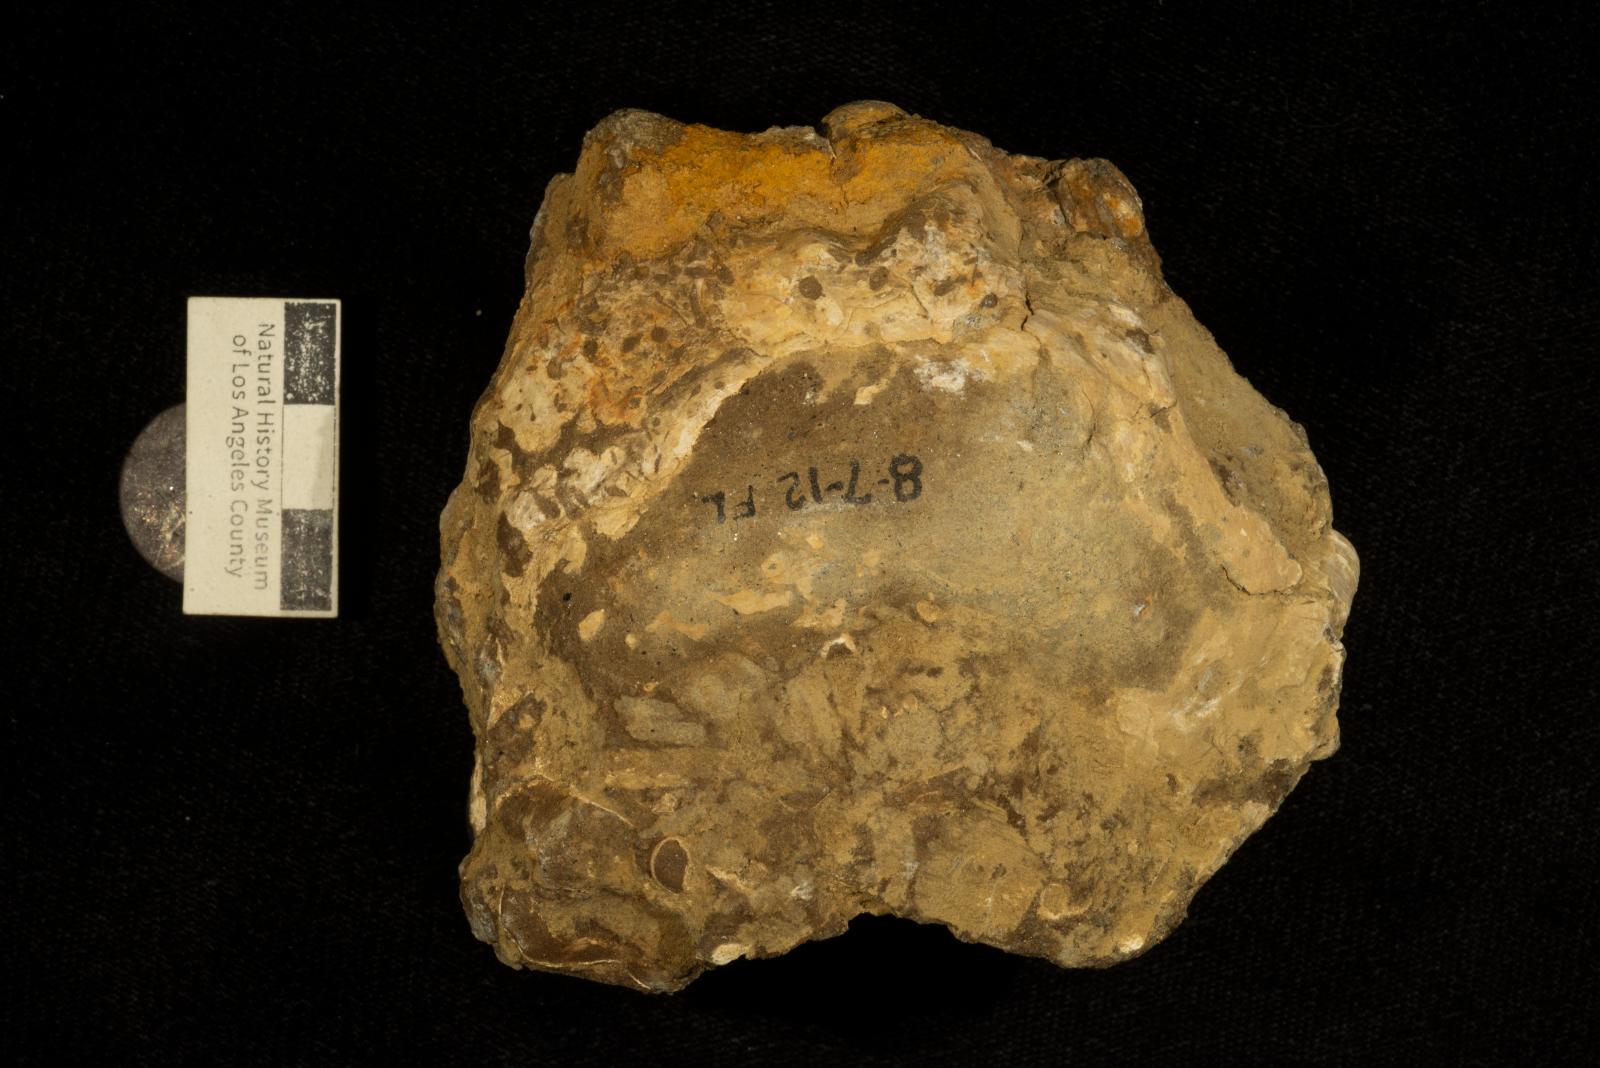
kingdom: Animalia
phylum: Mollusca
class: Gastropoda
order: Littorinimorpha
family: Xenophoridae
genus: Xenophora
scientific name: Xenophora willisi
